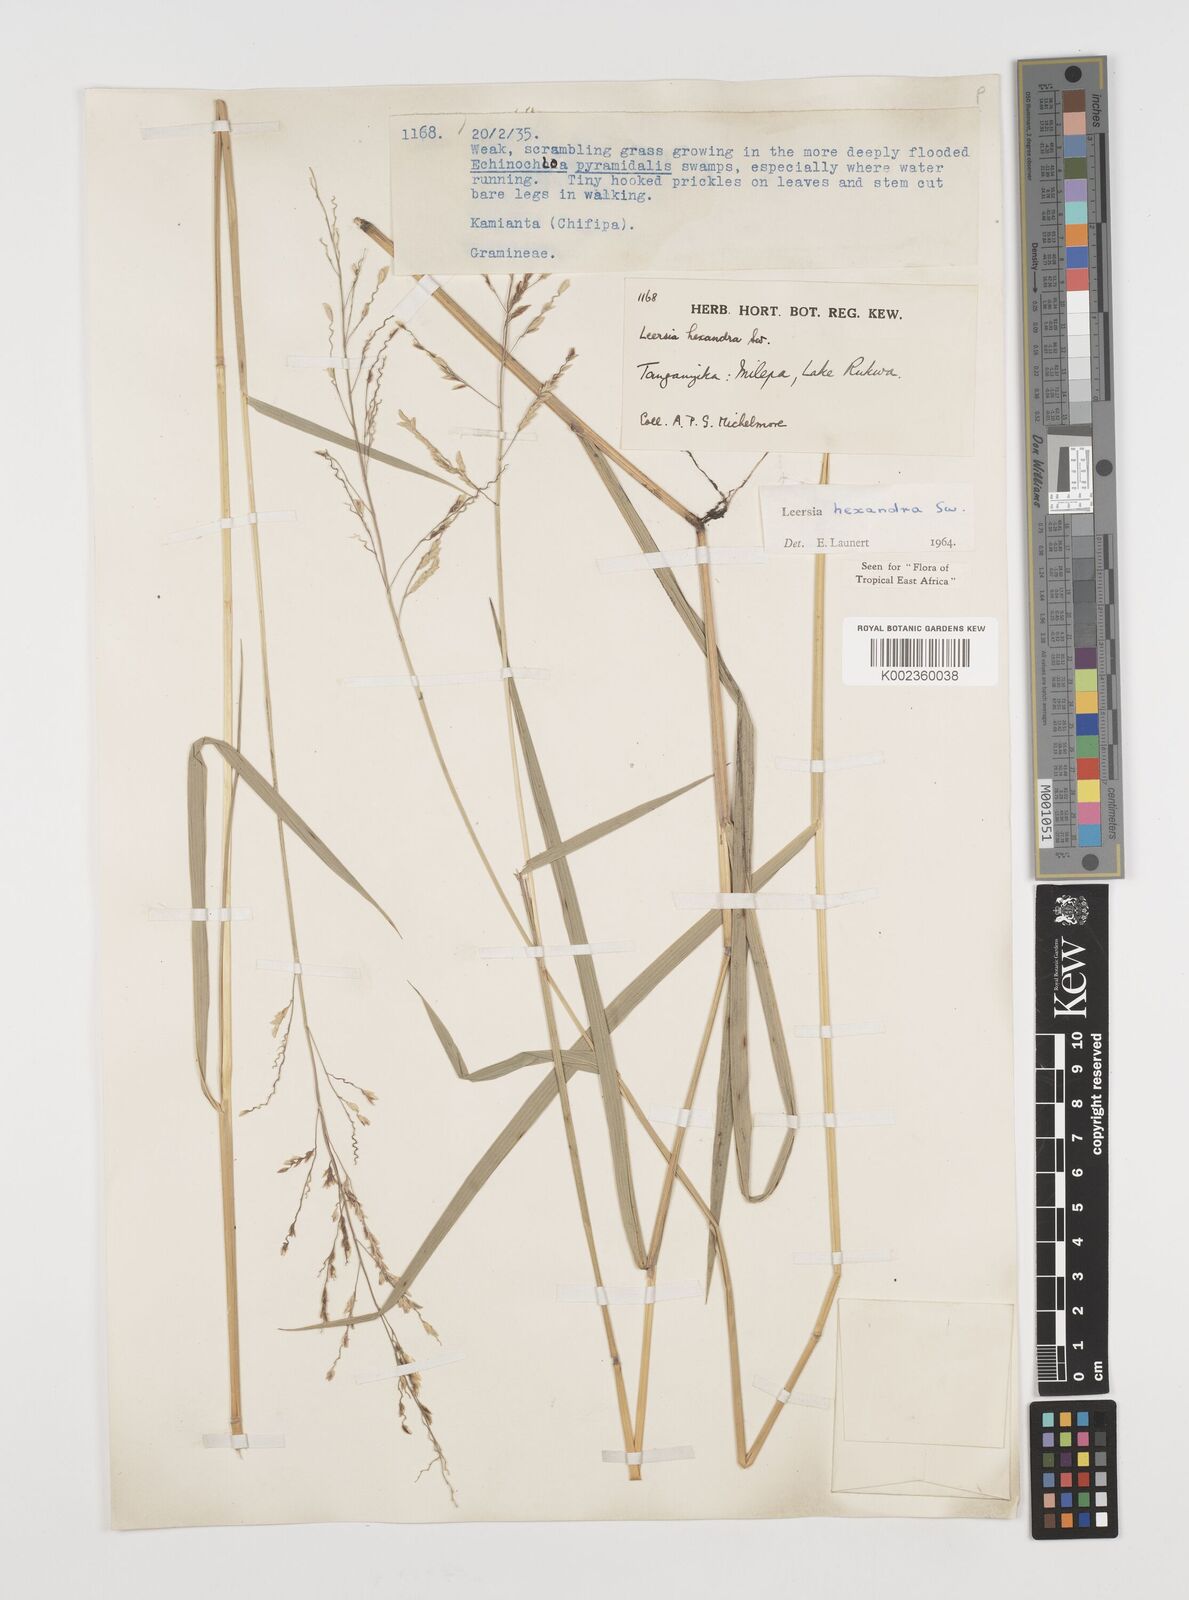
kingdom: Plantae
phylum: Tracheophyta
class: Liliopsida
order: Poales
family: Poaceae
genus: Leersia
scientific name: Leersia hexandra
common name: Southern cut grass
